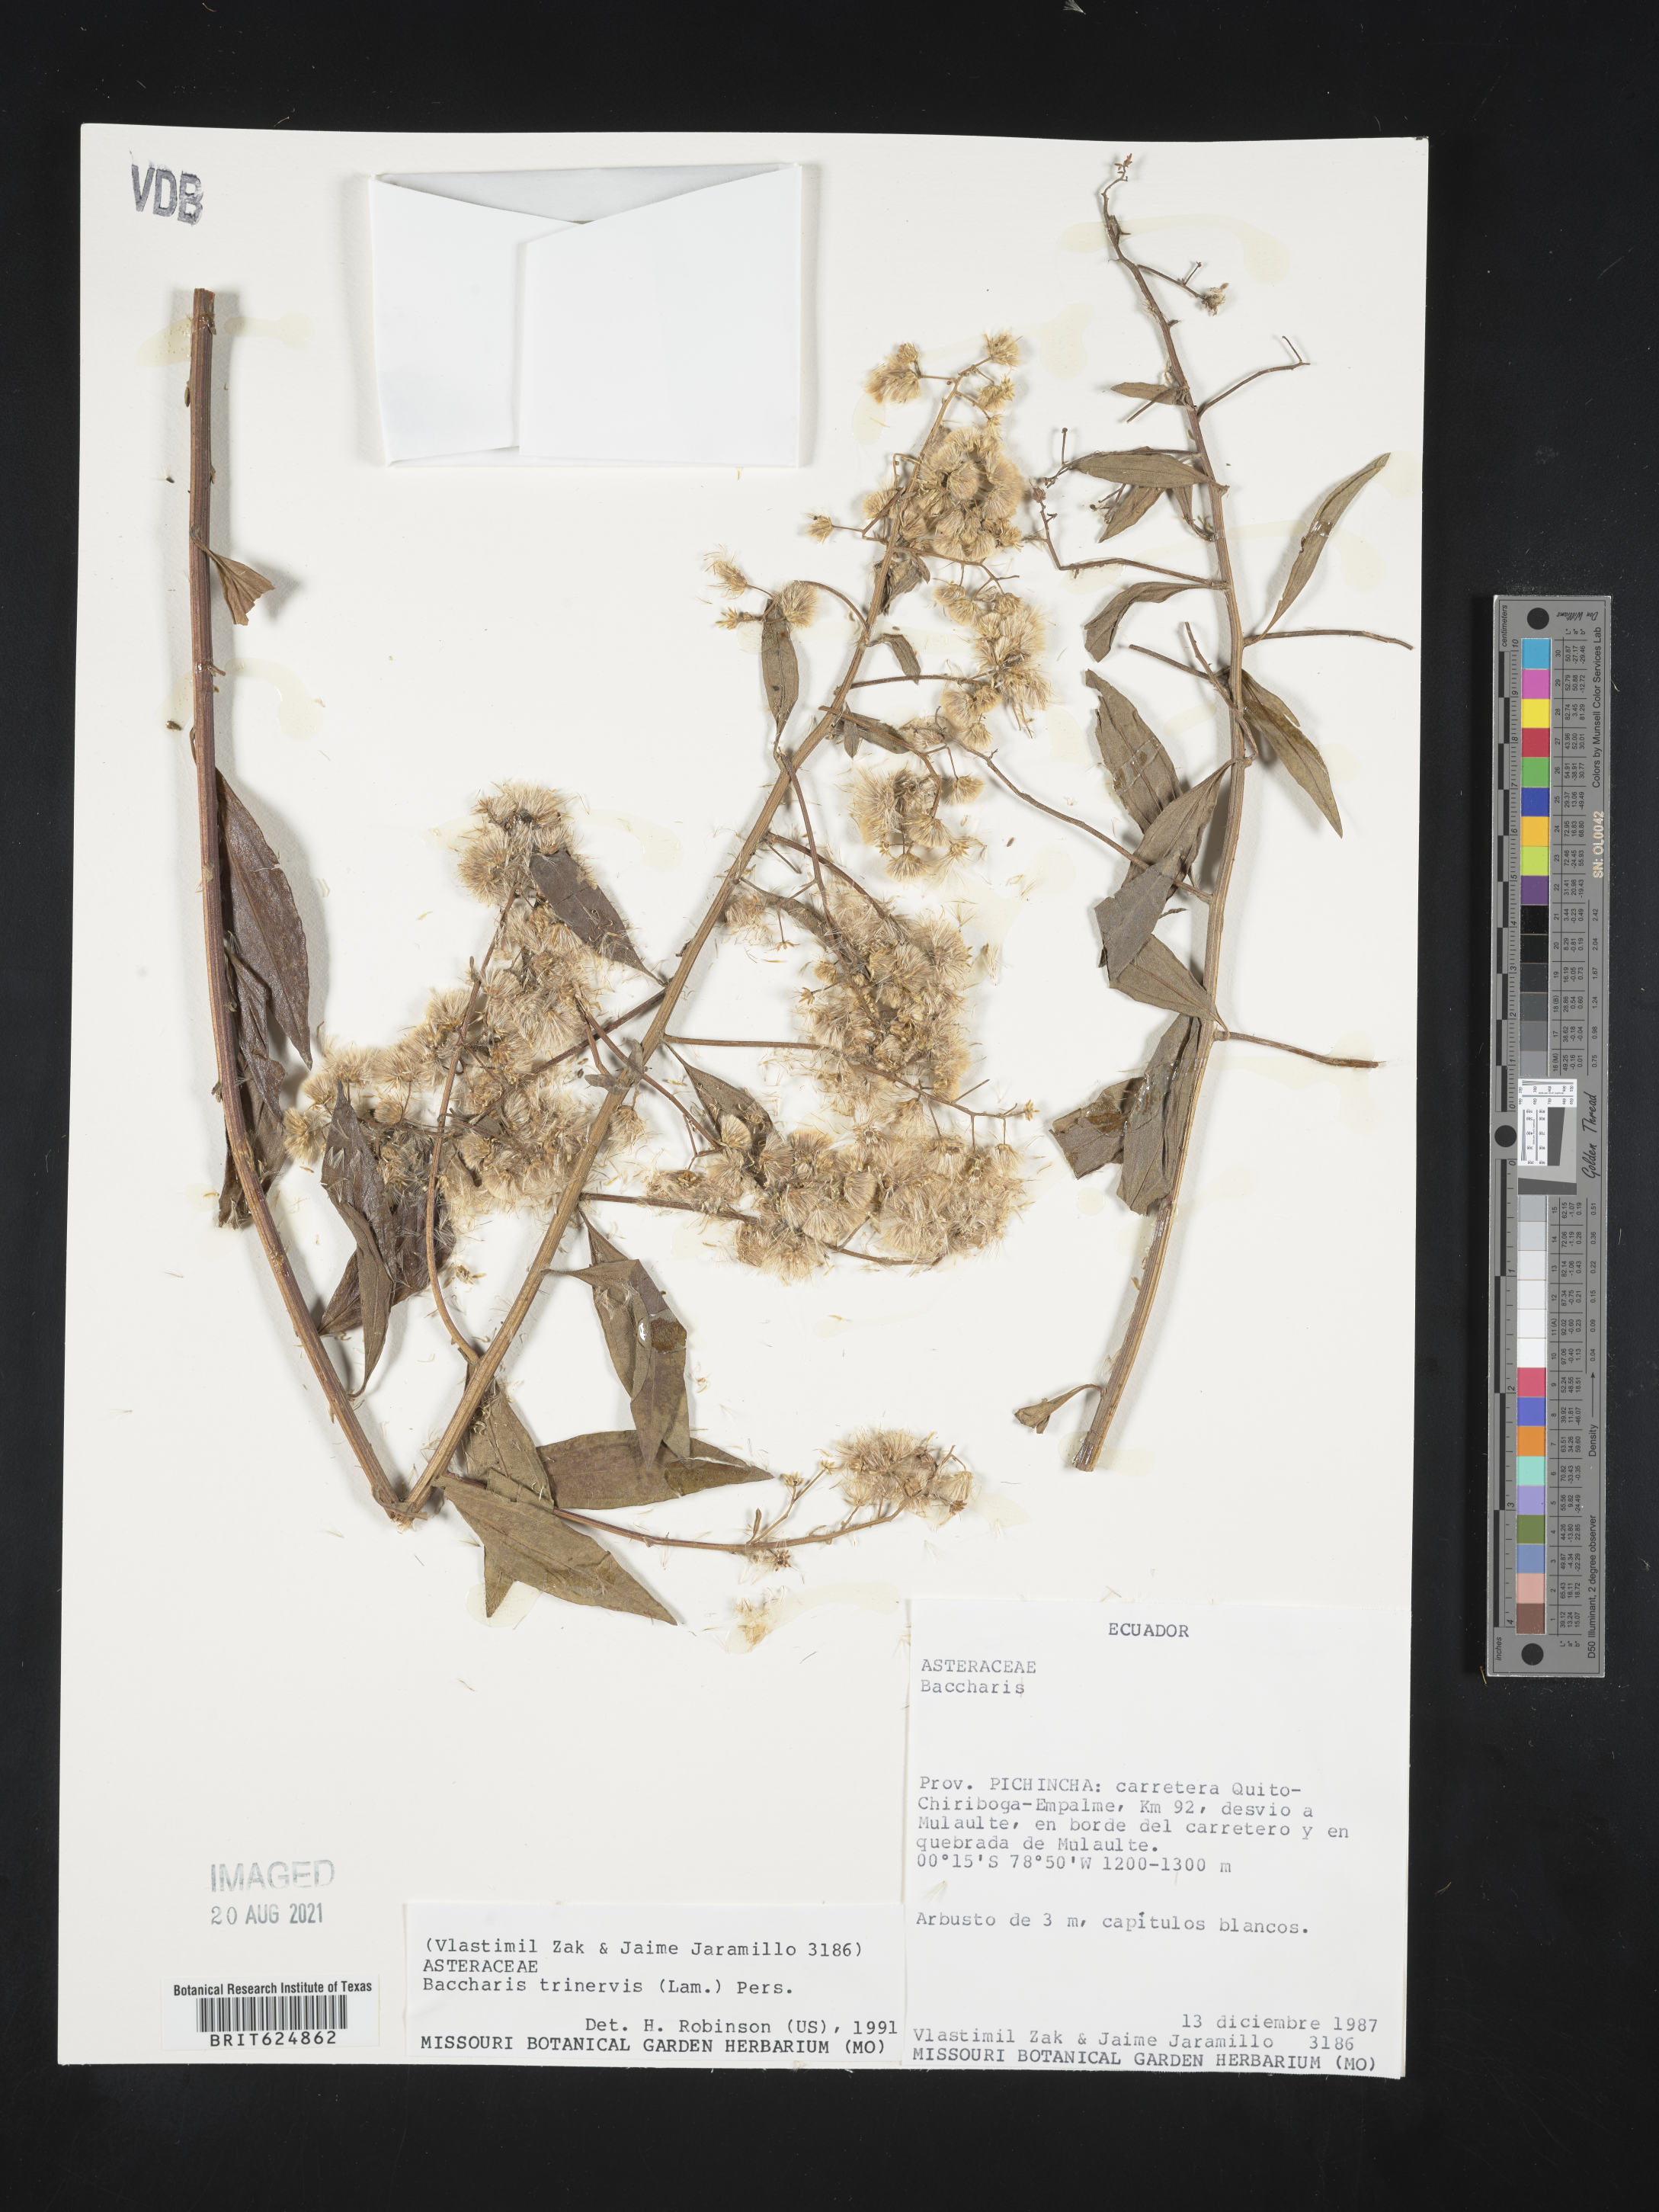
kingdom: Plantae
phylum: Tracheophyta
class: Magnoliopsida
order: Asterales
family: Asteraceae
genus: Baccharis
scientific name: Baccharis trinervis
